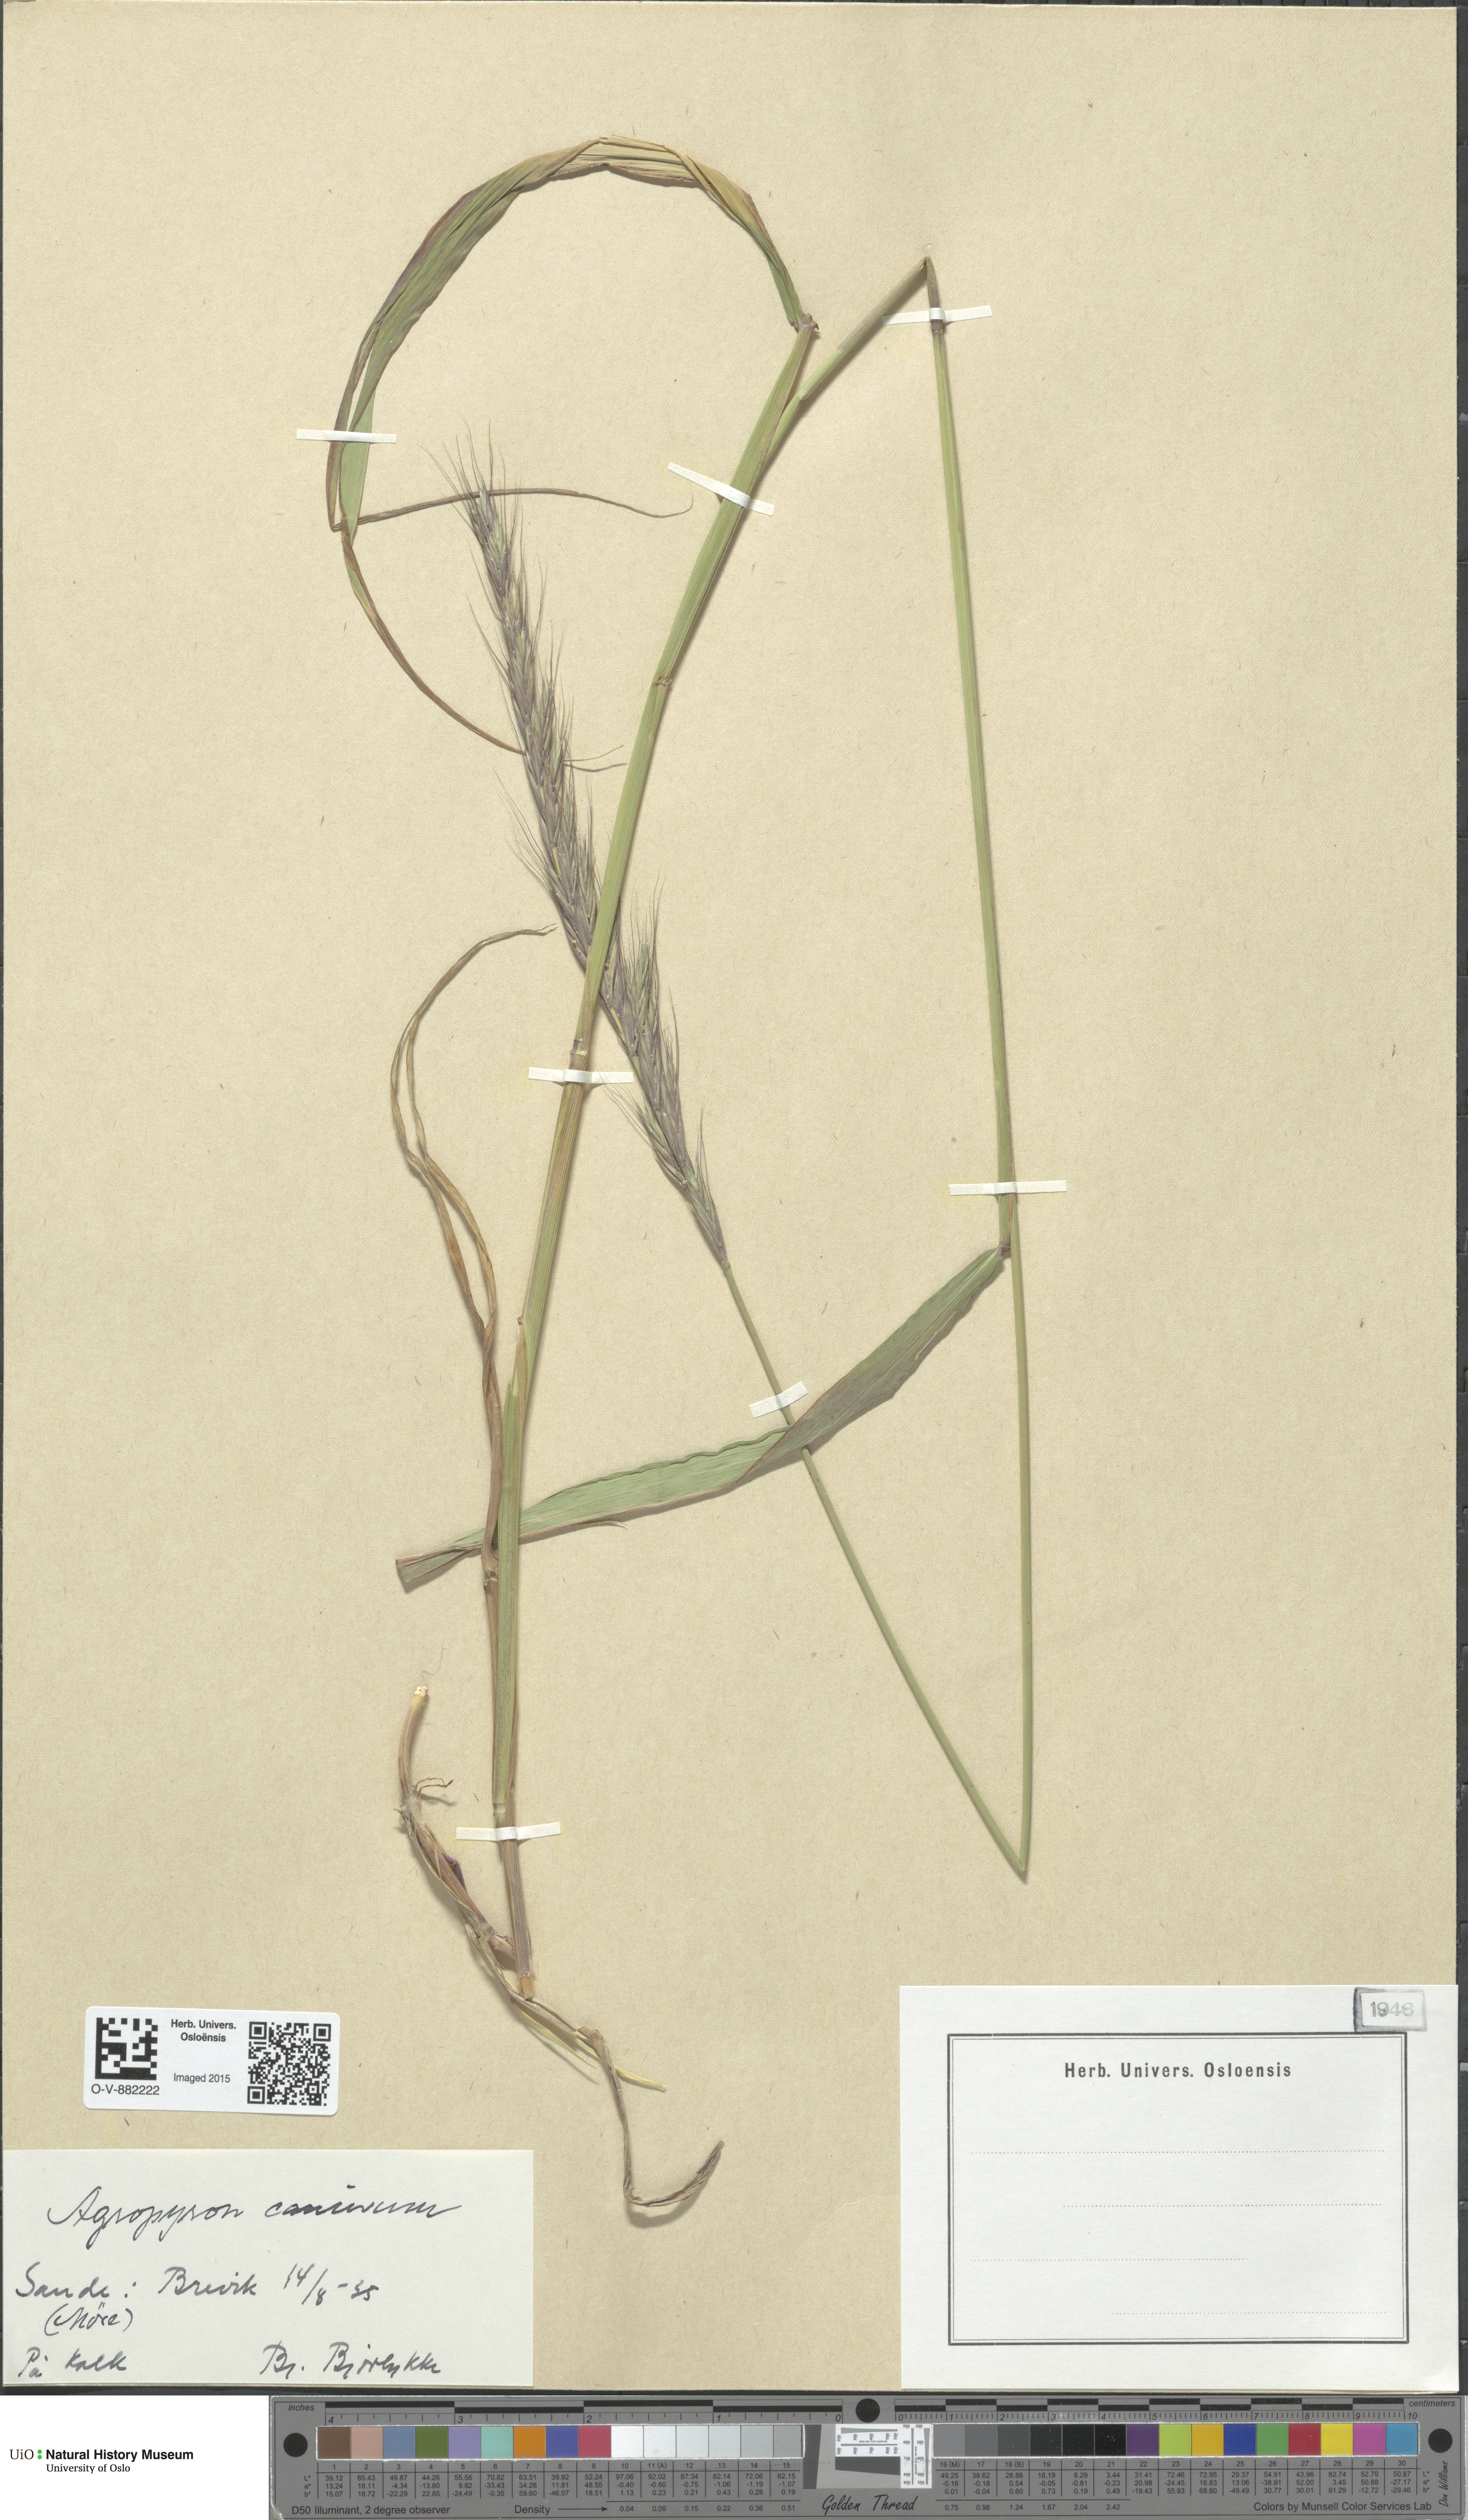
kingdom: Plantae
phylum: Tracheophyta
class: Liliopsida
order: Poales
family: Poaceae
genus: Elymus
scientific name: Elymus caninus
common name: Bearded couch
